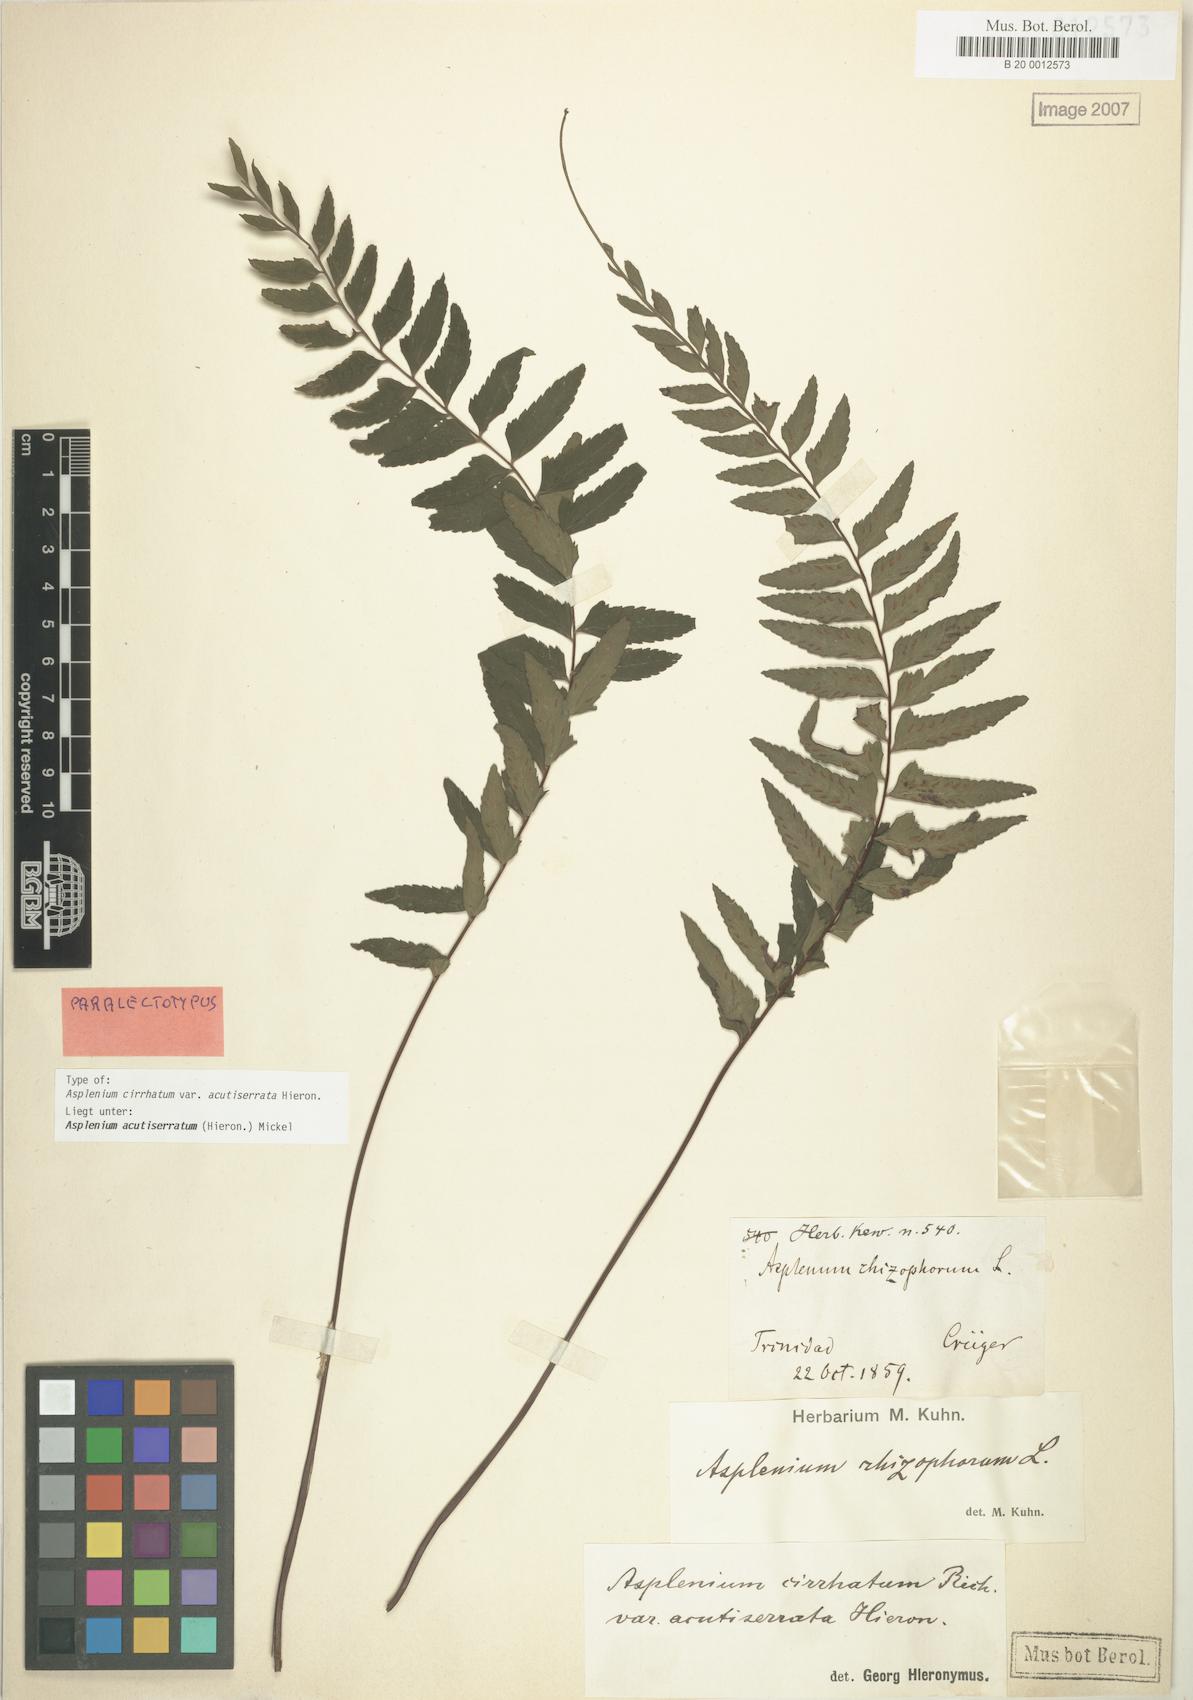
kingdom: Plantae
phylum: Tracheophyta
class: Polypodiopsida
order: Polypodiales
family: Aspleniaceae
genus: Asplenium
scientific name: Asplenium cirrhatum
